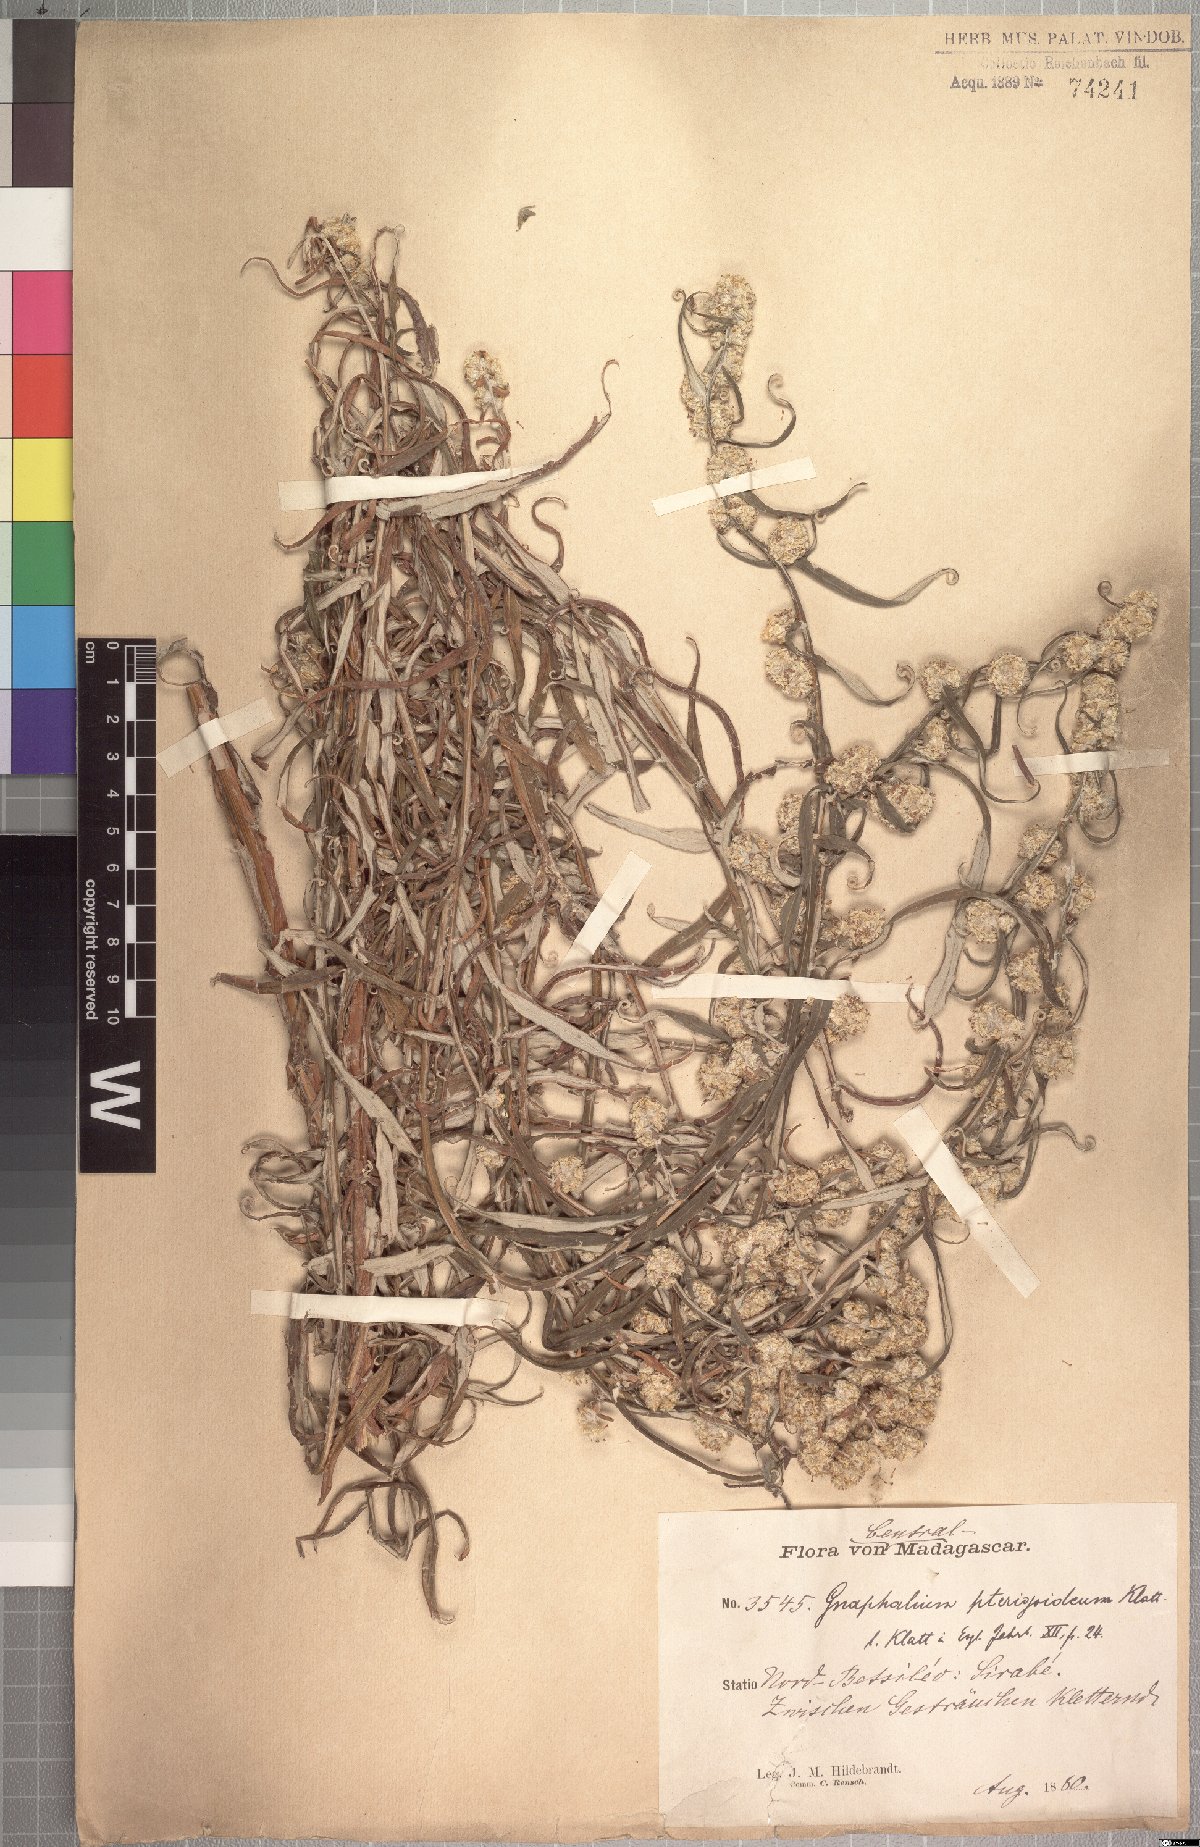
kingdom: Plantae
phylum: Tracheophyta
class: Magnoliopsida
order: Asterales
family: Asteraceae
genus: Helichrysum
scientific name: Helichrysum mutisiaefolium
